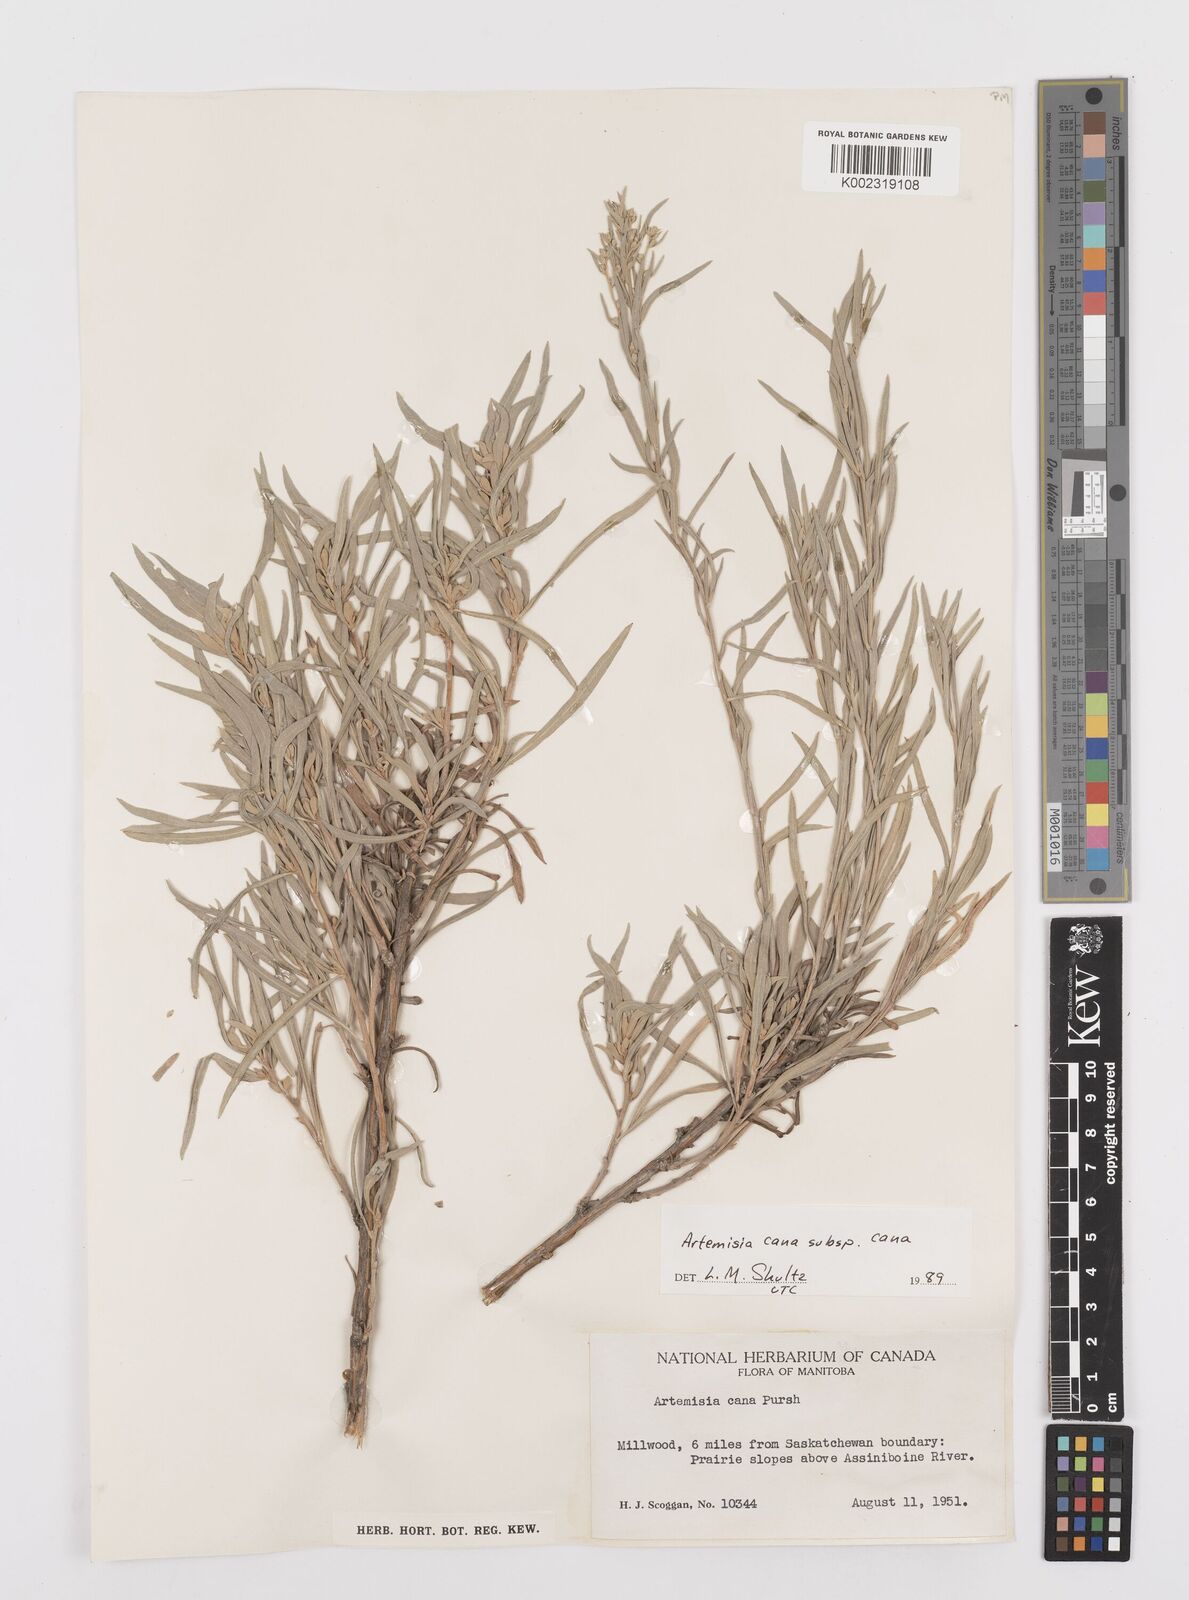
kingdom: Plantae
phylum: Tracheophyta
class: Magnoliopsida
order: Asterales
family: Asteraceae
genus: Artemisia
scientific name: Artemisia cana
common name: Silver sagebrush
